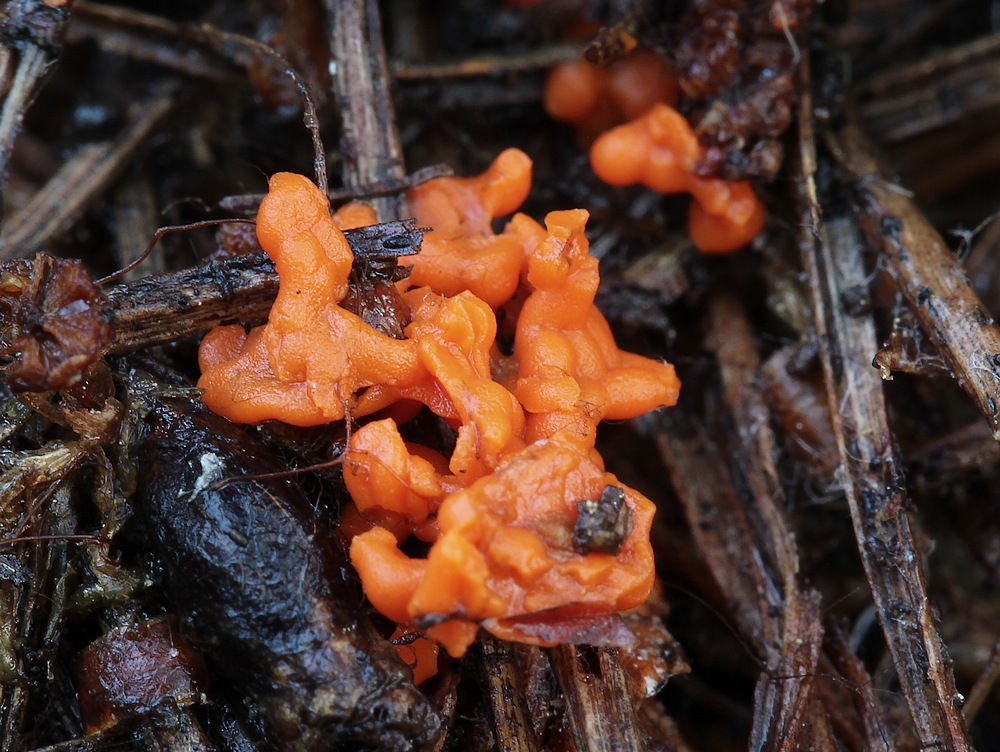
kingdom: Protozoa
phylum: Mycetozoa
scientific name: Mycetozoa
